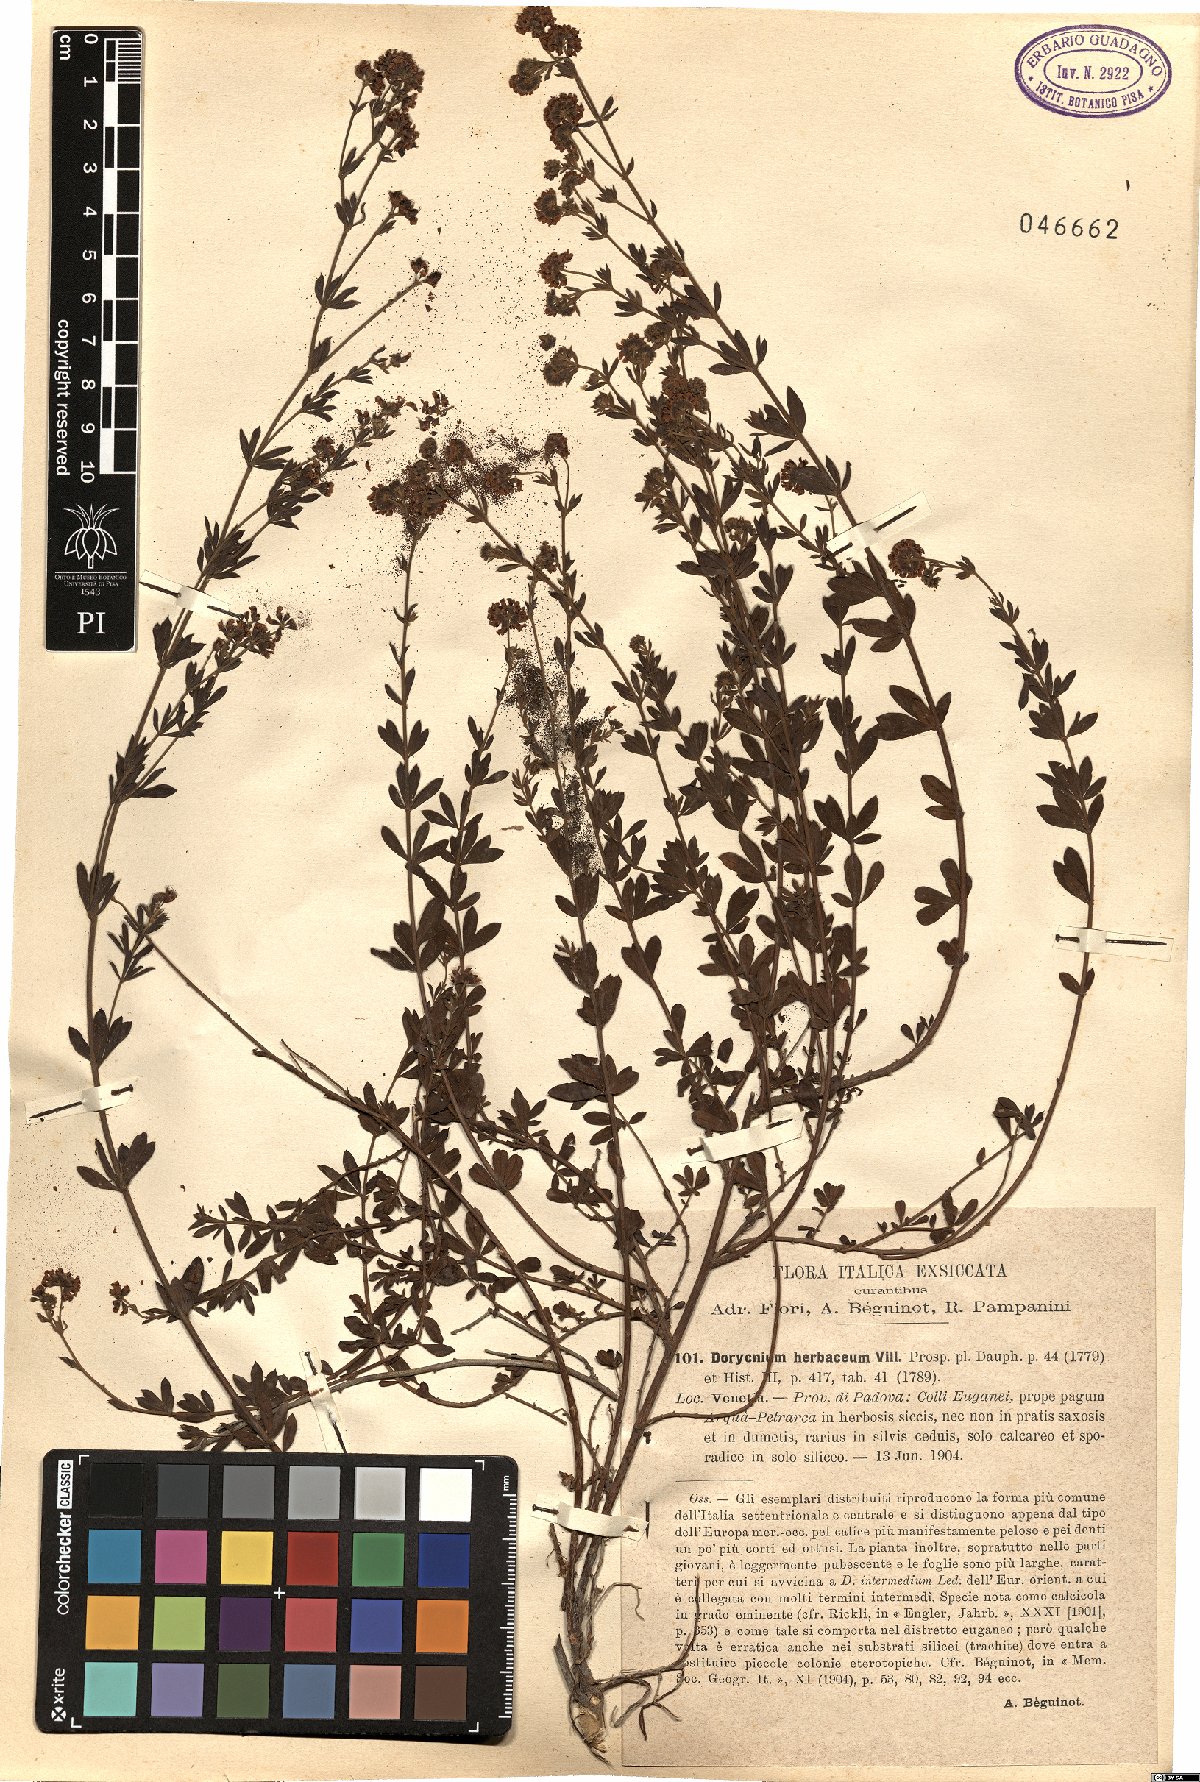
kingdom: Plantae
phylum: Tracheophyta
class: Magnoliopsida
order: Fabales
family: Fabaceae
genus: Lotus
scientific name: Lotus herbaceus
